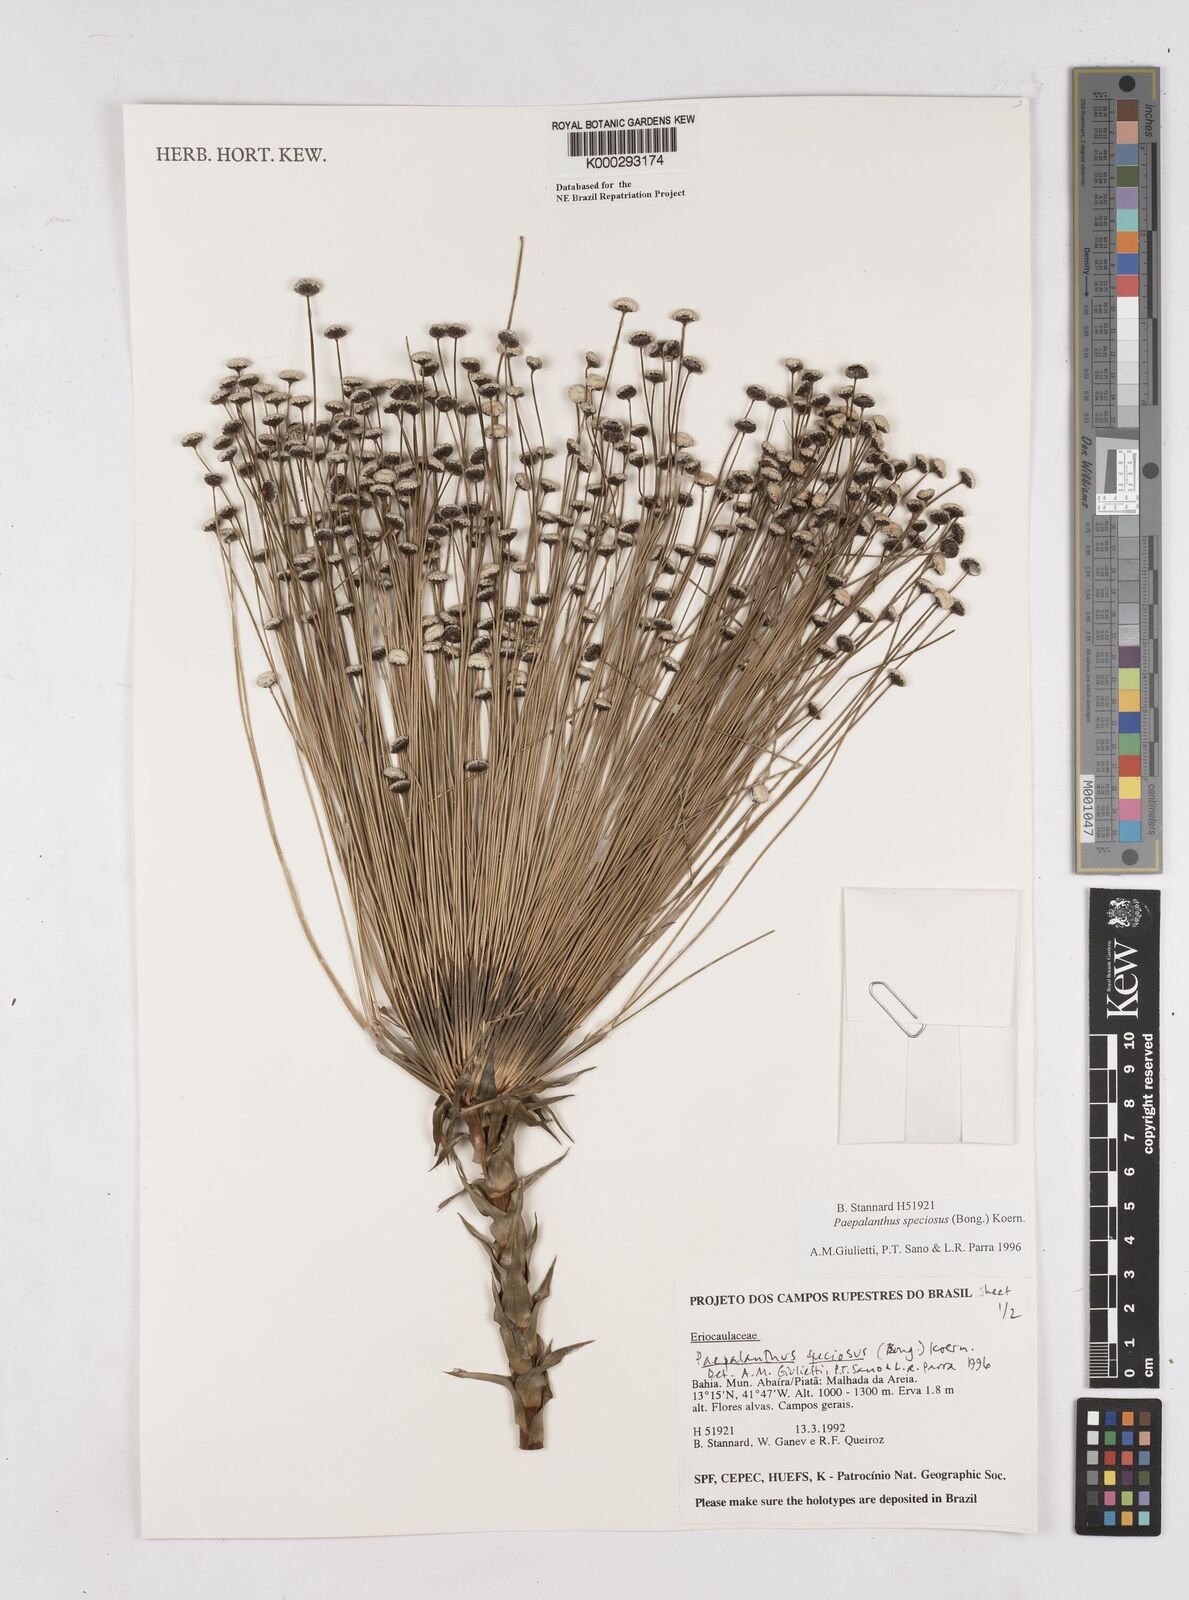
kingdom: Plantae
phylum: Tracheophyta
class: Liliopsida
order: Poales
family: Eriocaulaceae
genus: Paepalanthus
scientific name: Paepalanthus
